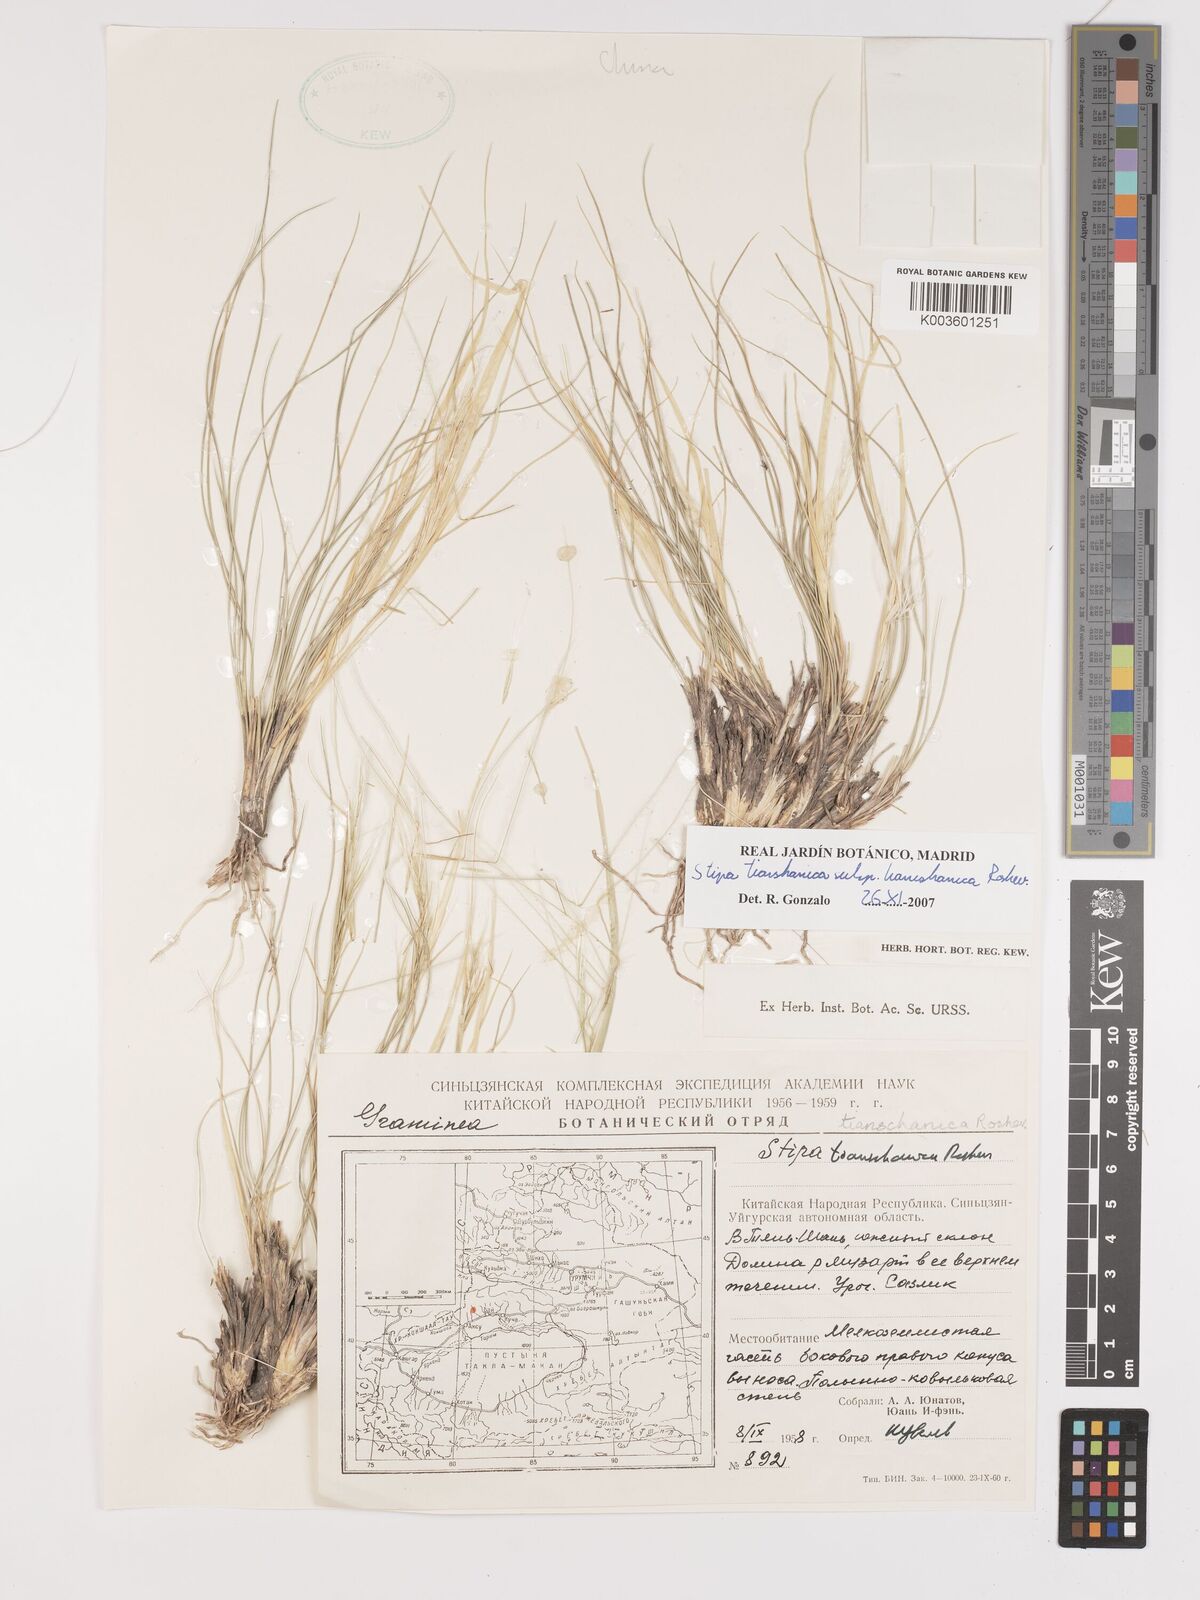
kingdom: Plantae
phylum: Tracheophyta
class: Liliopsida
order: Poales
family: Poaceae
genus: Stipa
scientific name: Stipa tianschanica
